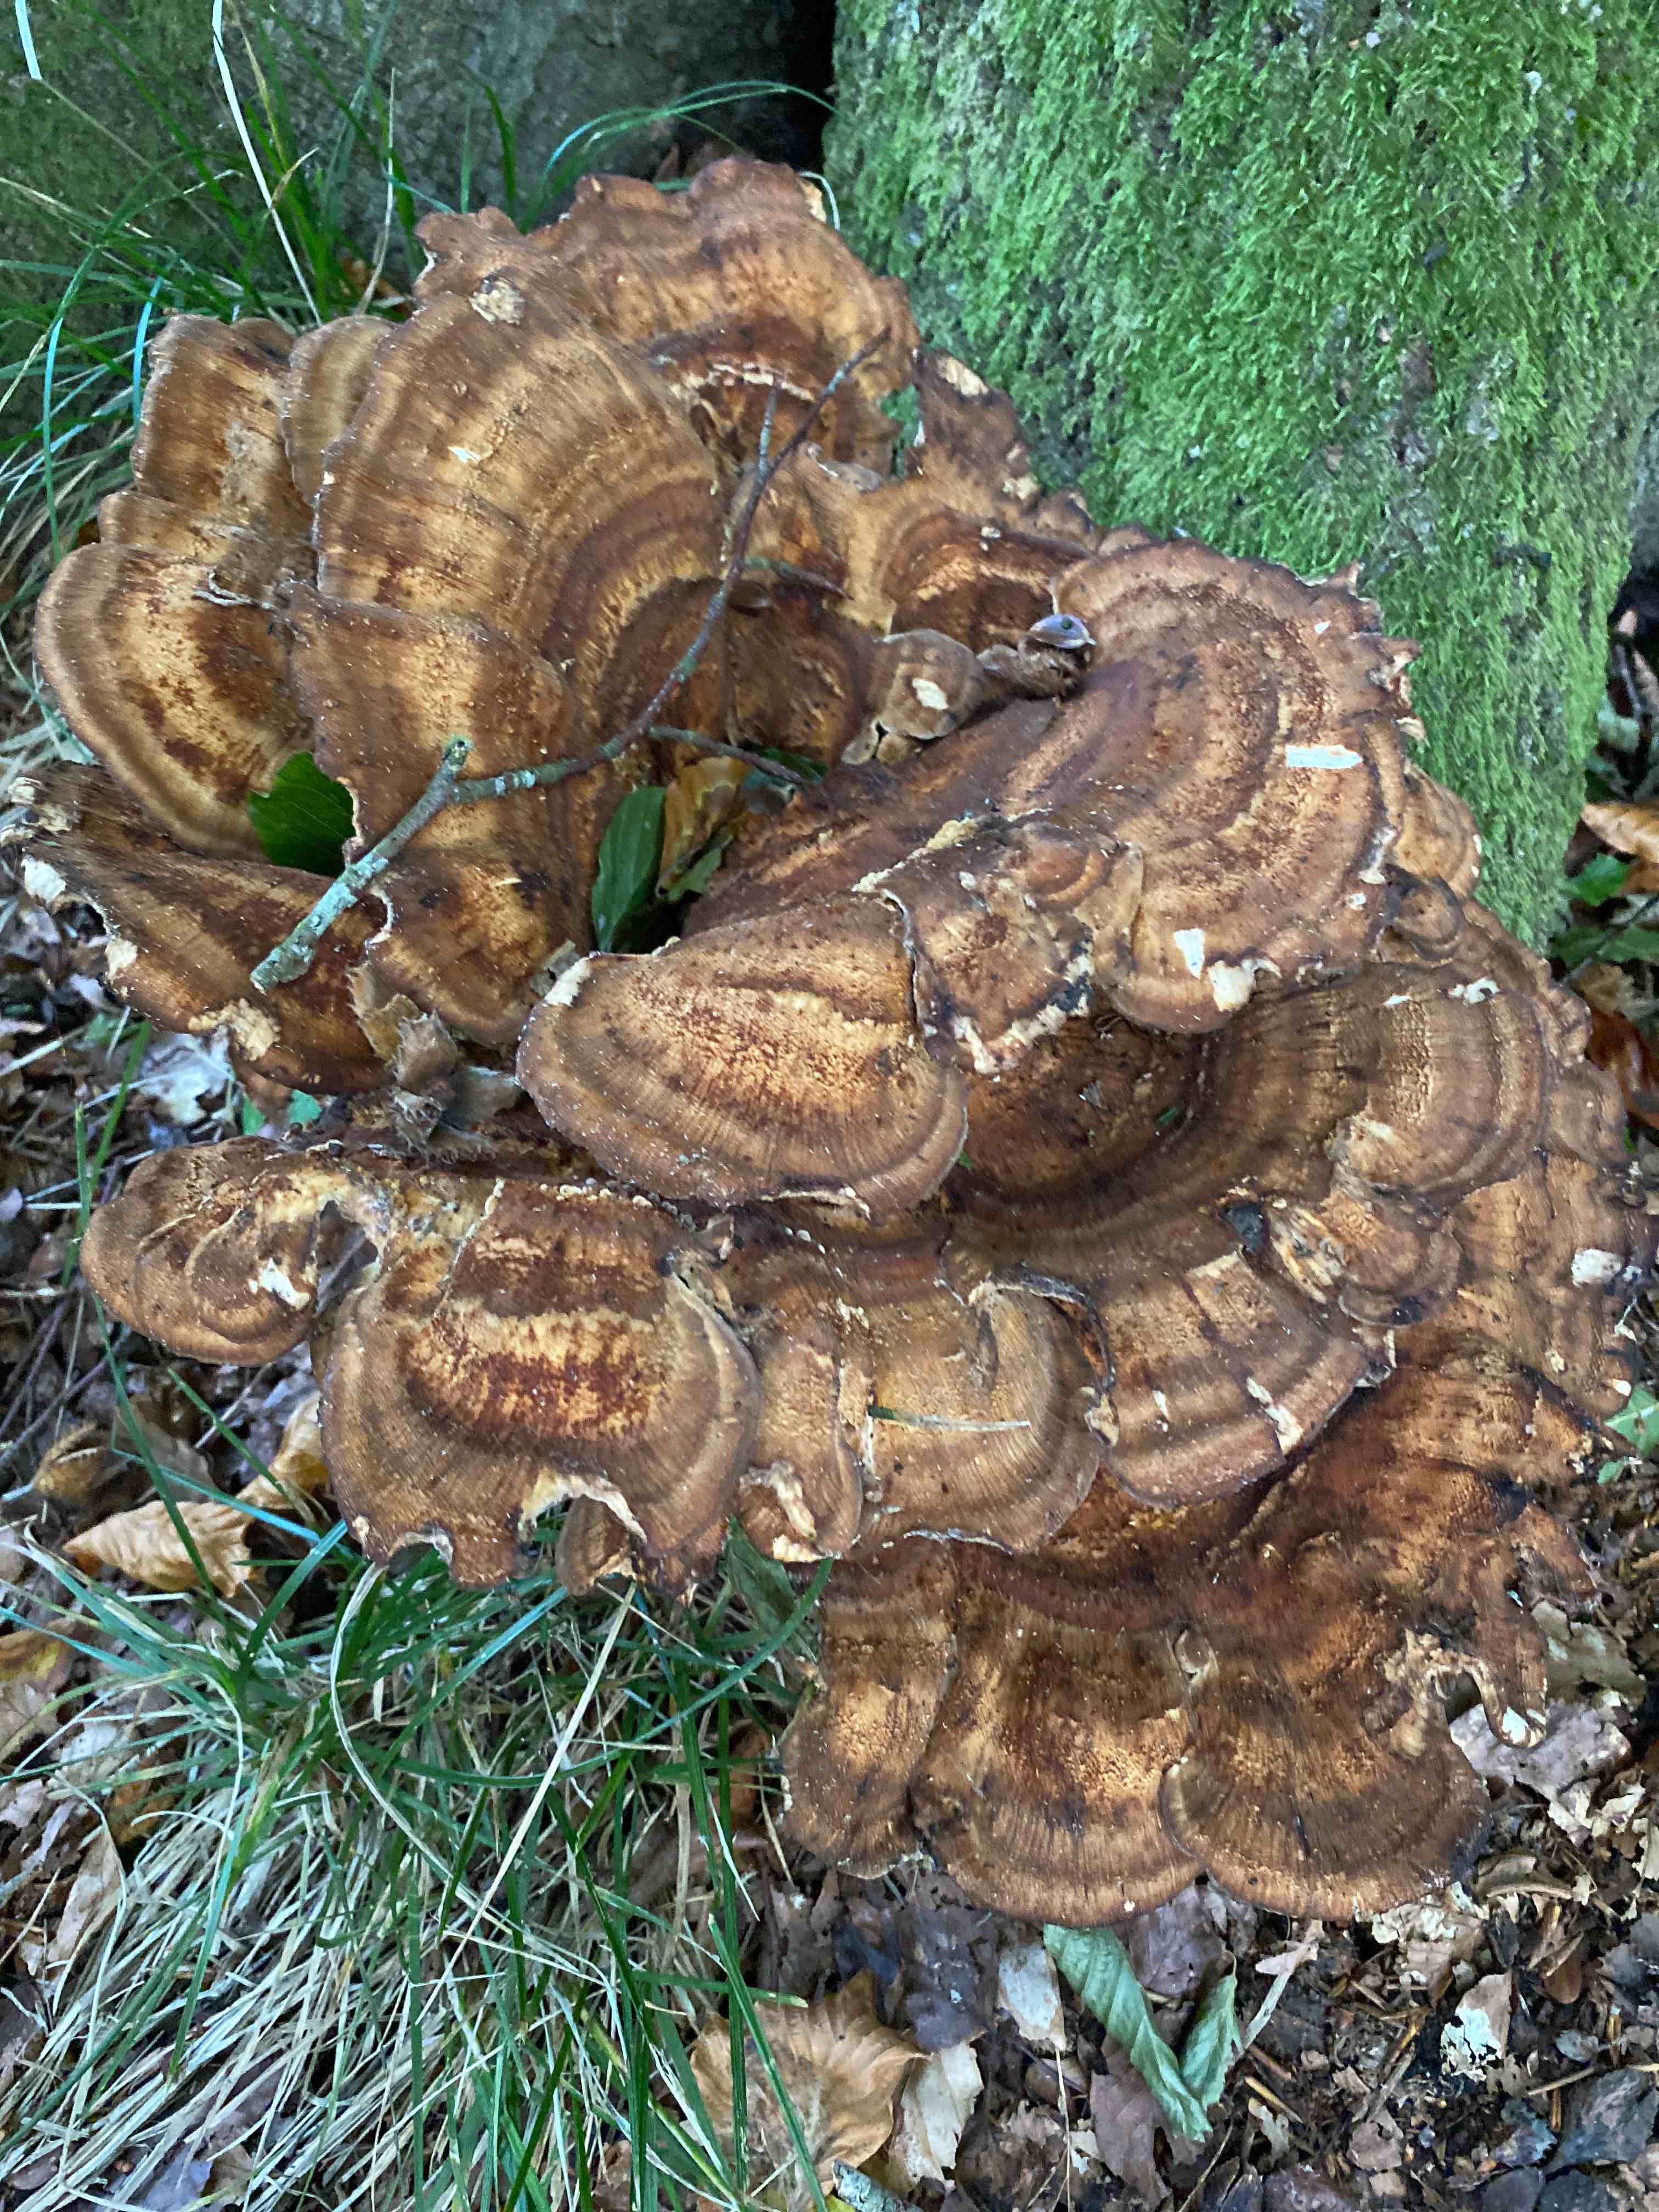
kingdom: Fungi
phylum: Basidiomycota
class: Agaricomycetes
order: Polyporales
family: Meripilaceae
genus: Meripilus
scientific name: Meripilus giganteus
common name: kæmpeporesvamp
